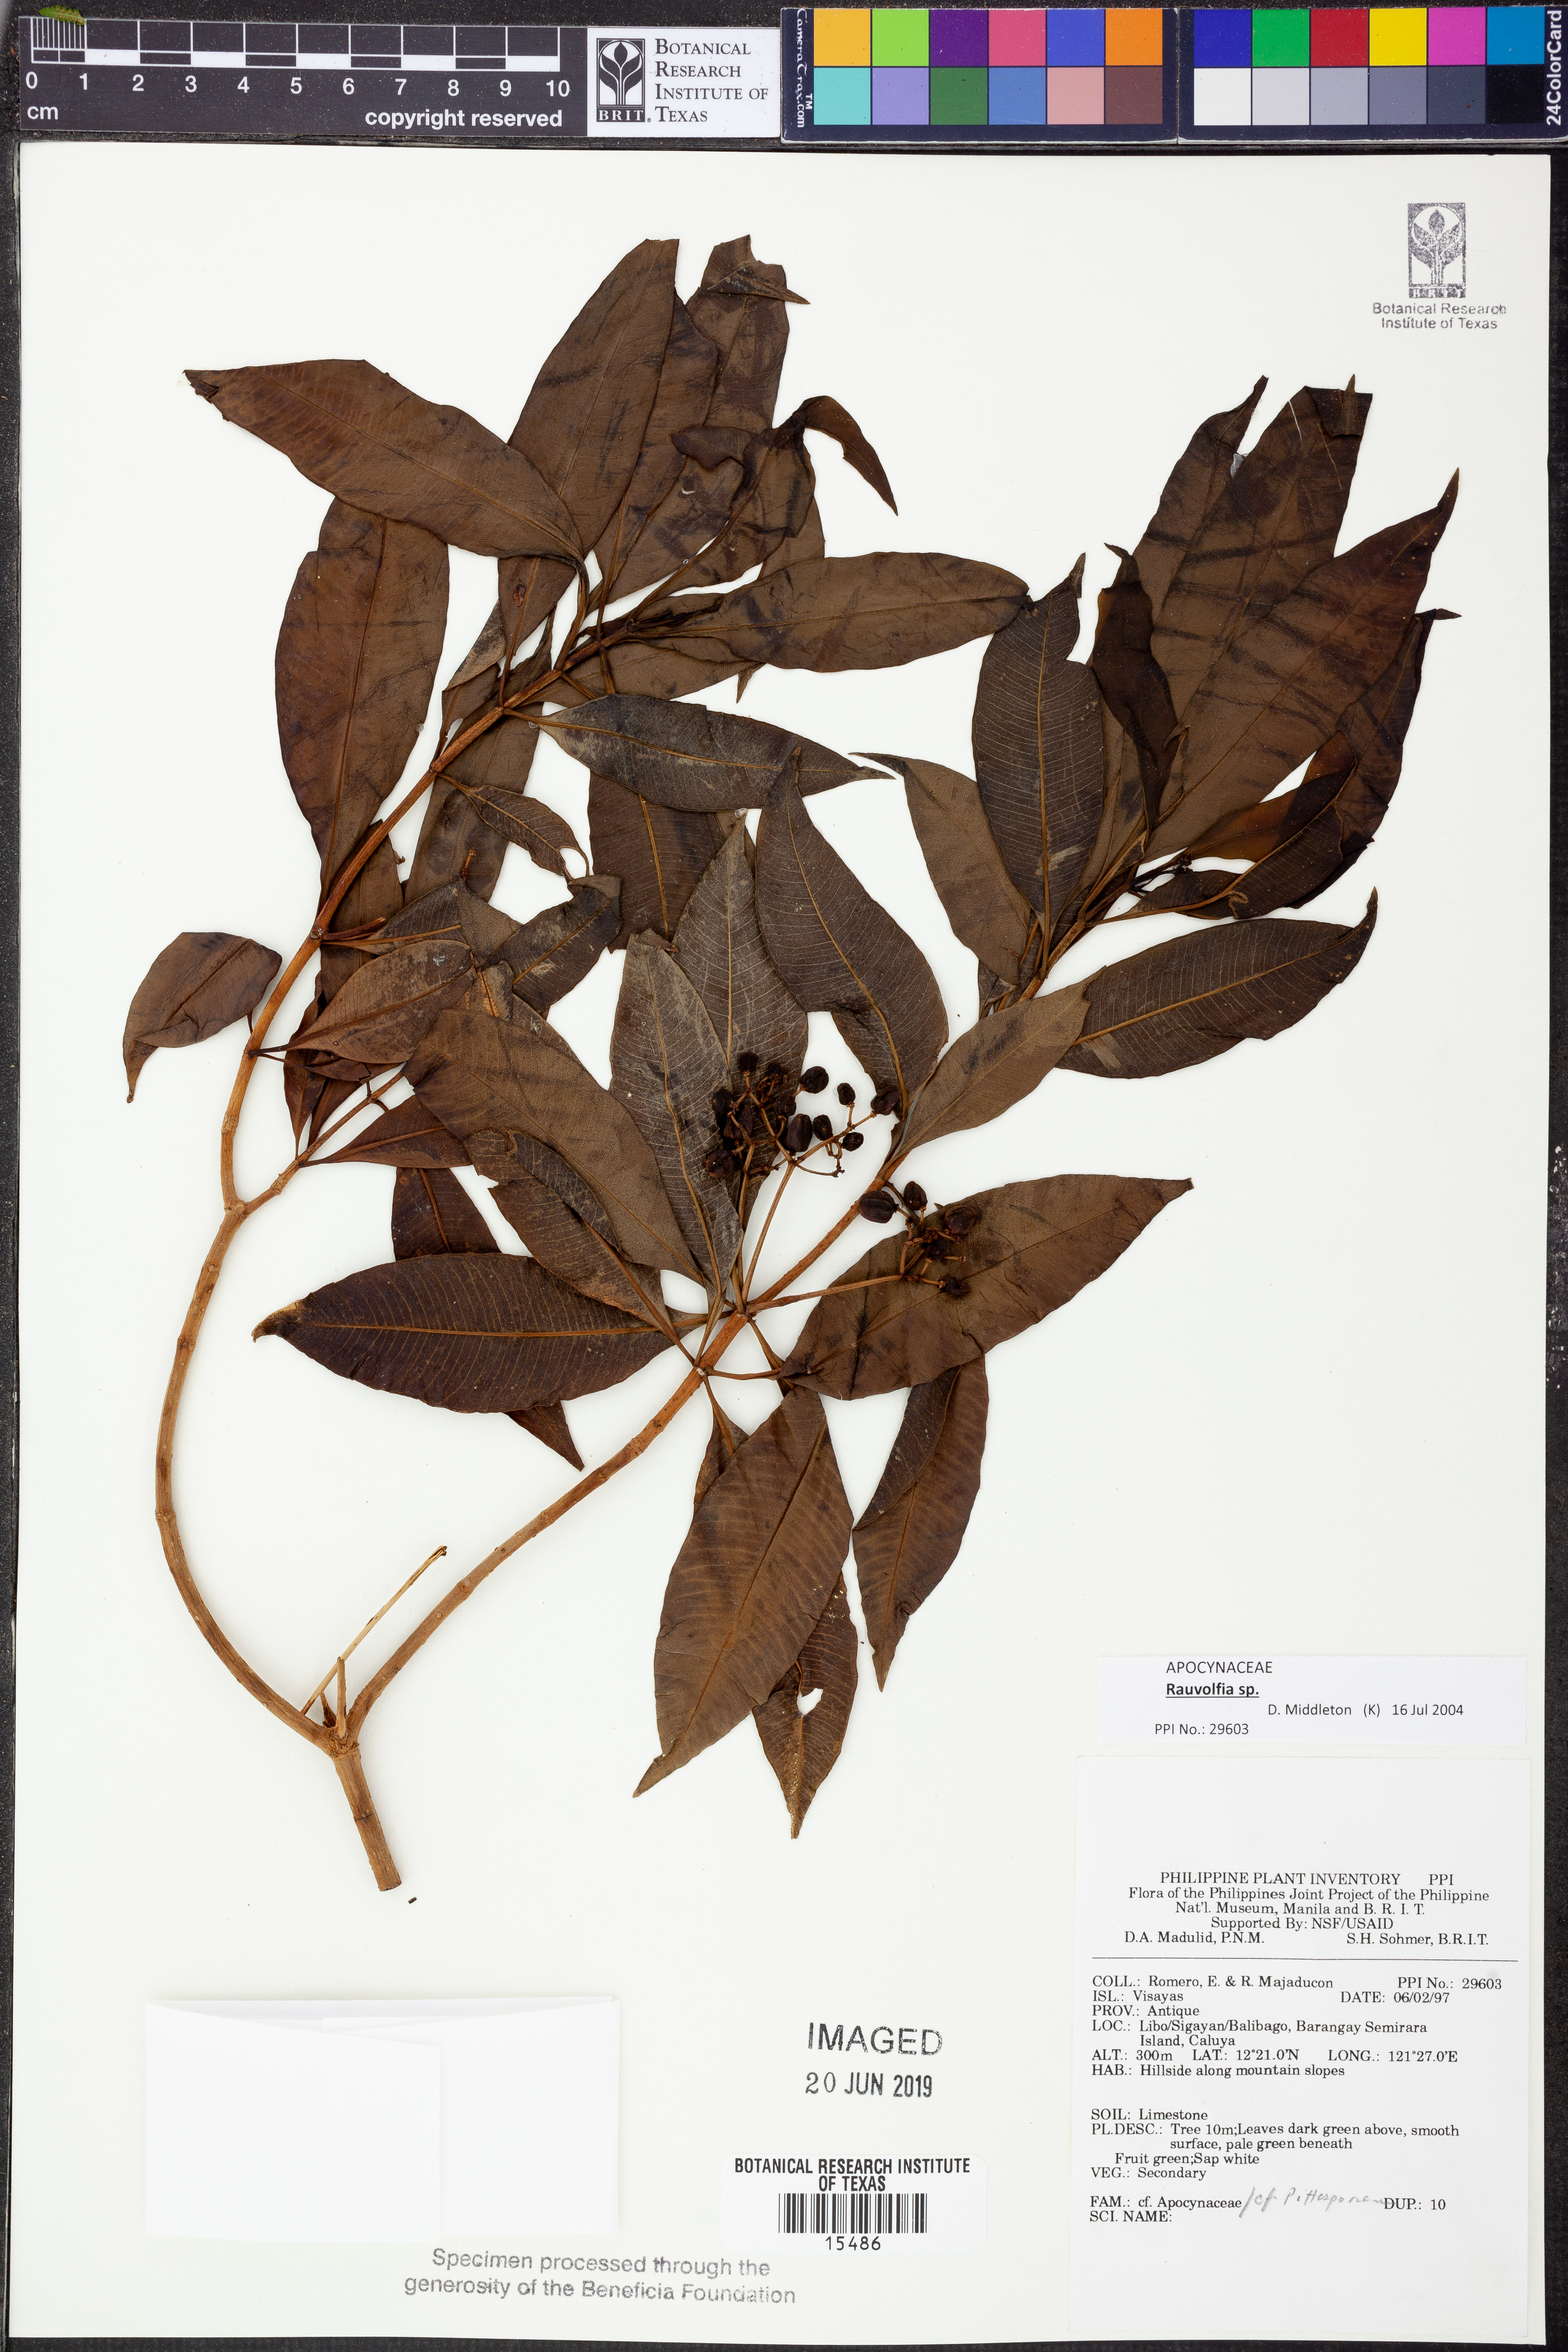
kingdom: Plantae
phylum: Tracheophyta
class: Magnoliopsida
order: Gentianales
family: Apocynaceae
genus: Rauvolfia
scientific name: Rauvolfia
